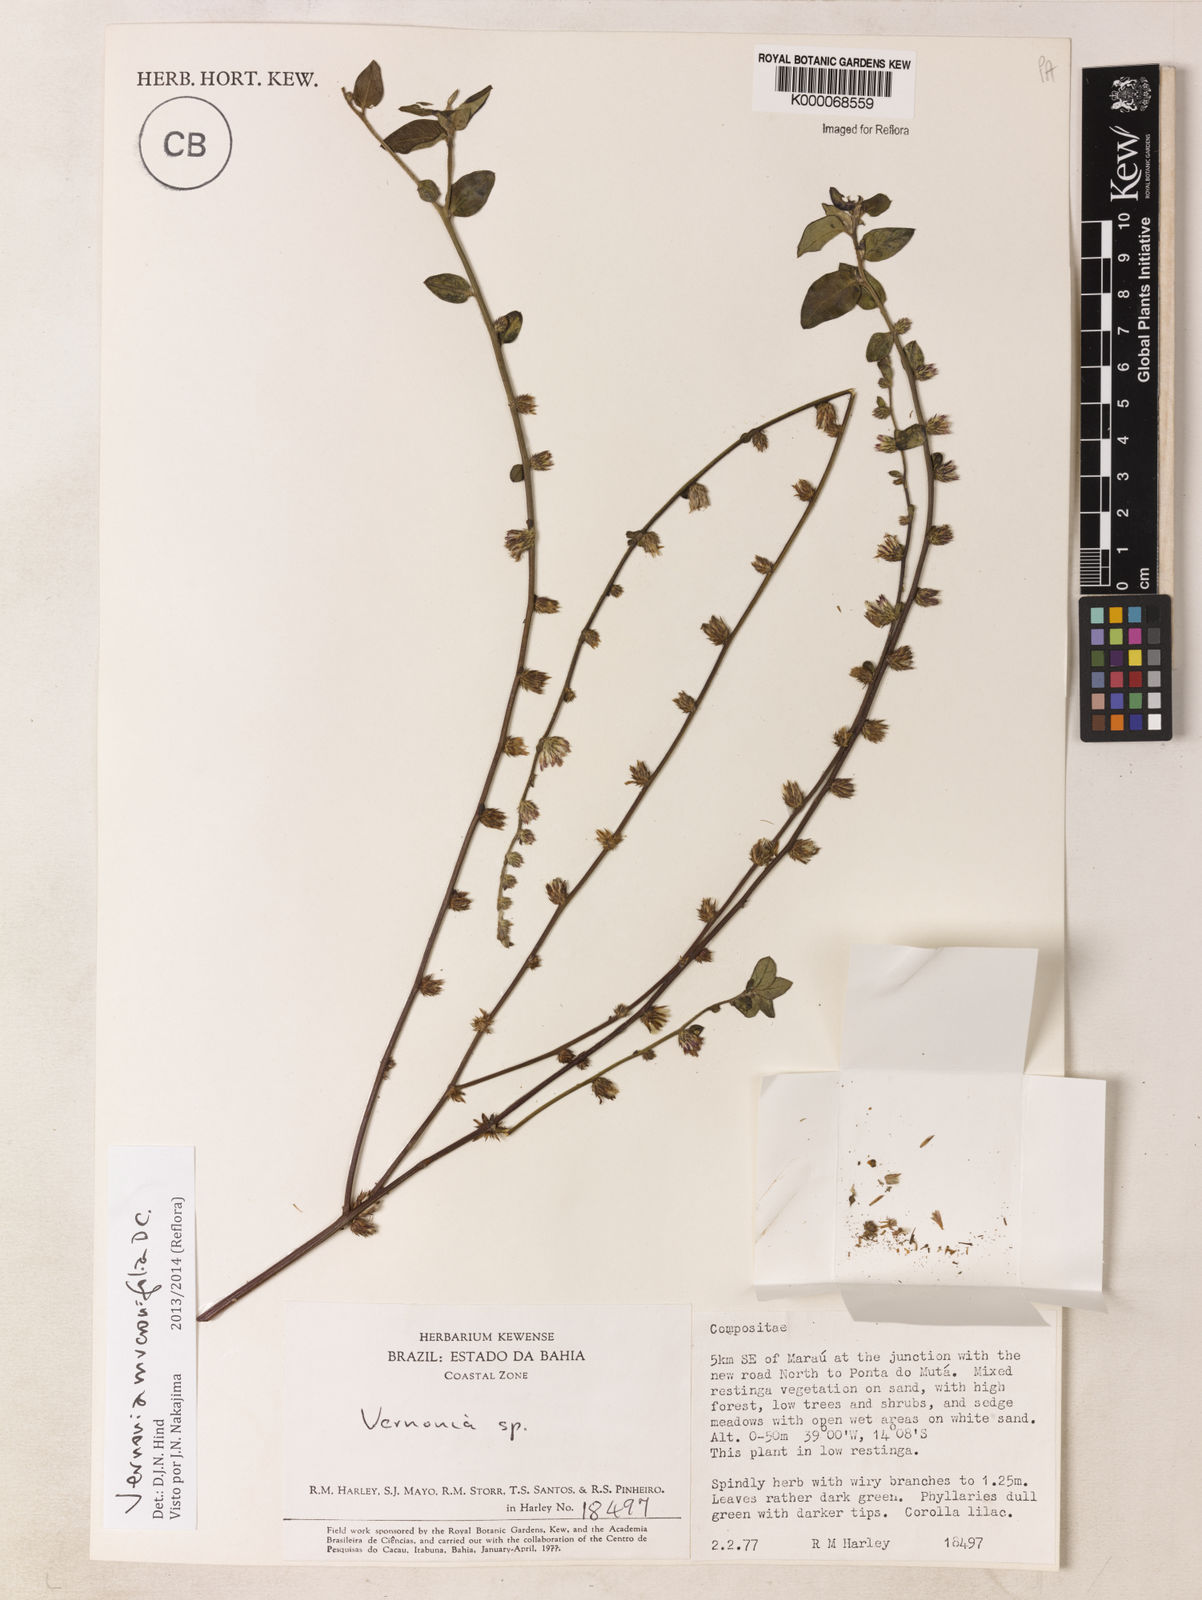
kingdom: Plantae
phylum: Tracheophyta
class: Magnoliopsida
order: Asterales
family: Asteraceae
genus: Lepidaploa
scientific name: Lepidaploa mucronifolia
